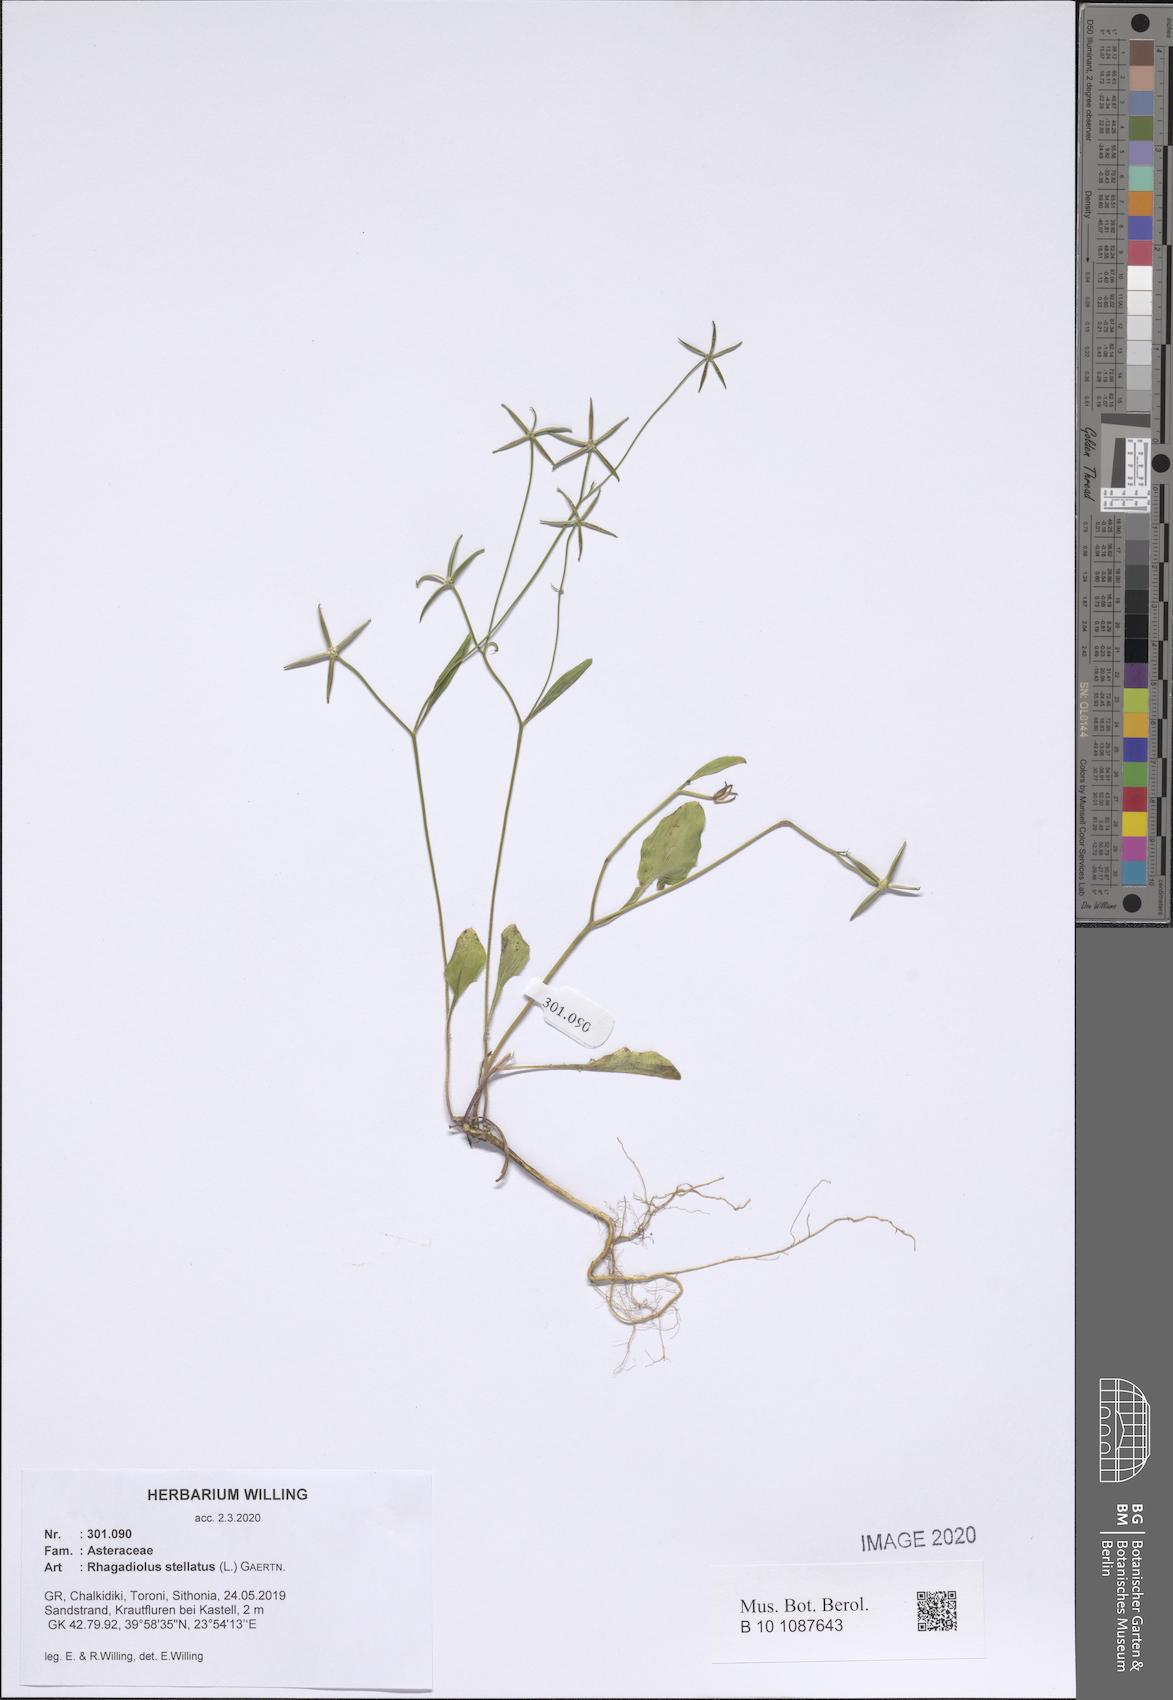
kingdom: Plantae
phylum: Tracheophyta
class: Magnoliopsida
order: Asterales
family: Asteraceae
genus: Rhagadiolus
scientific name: Rhagadiolus stellatus
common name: Star hawkbit
